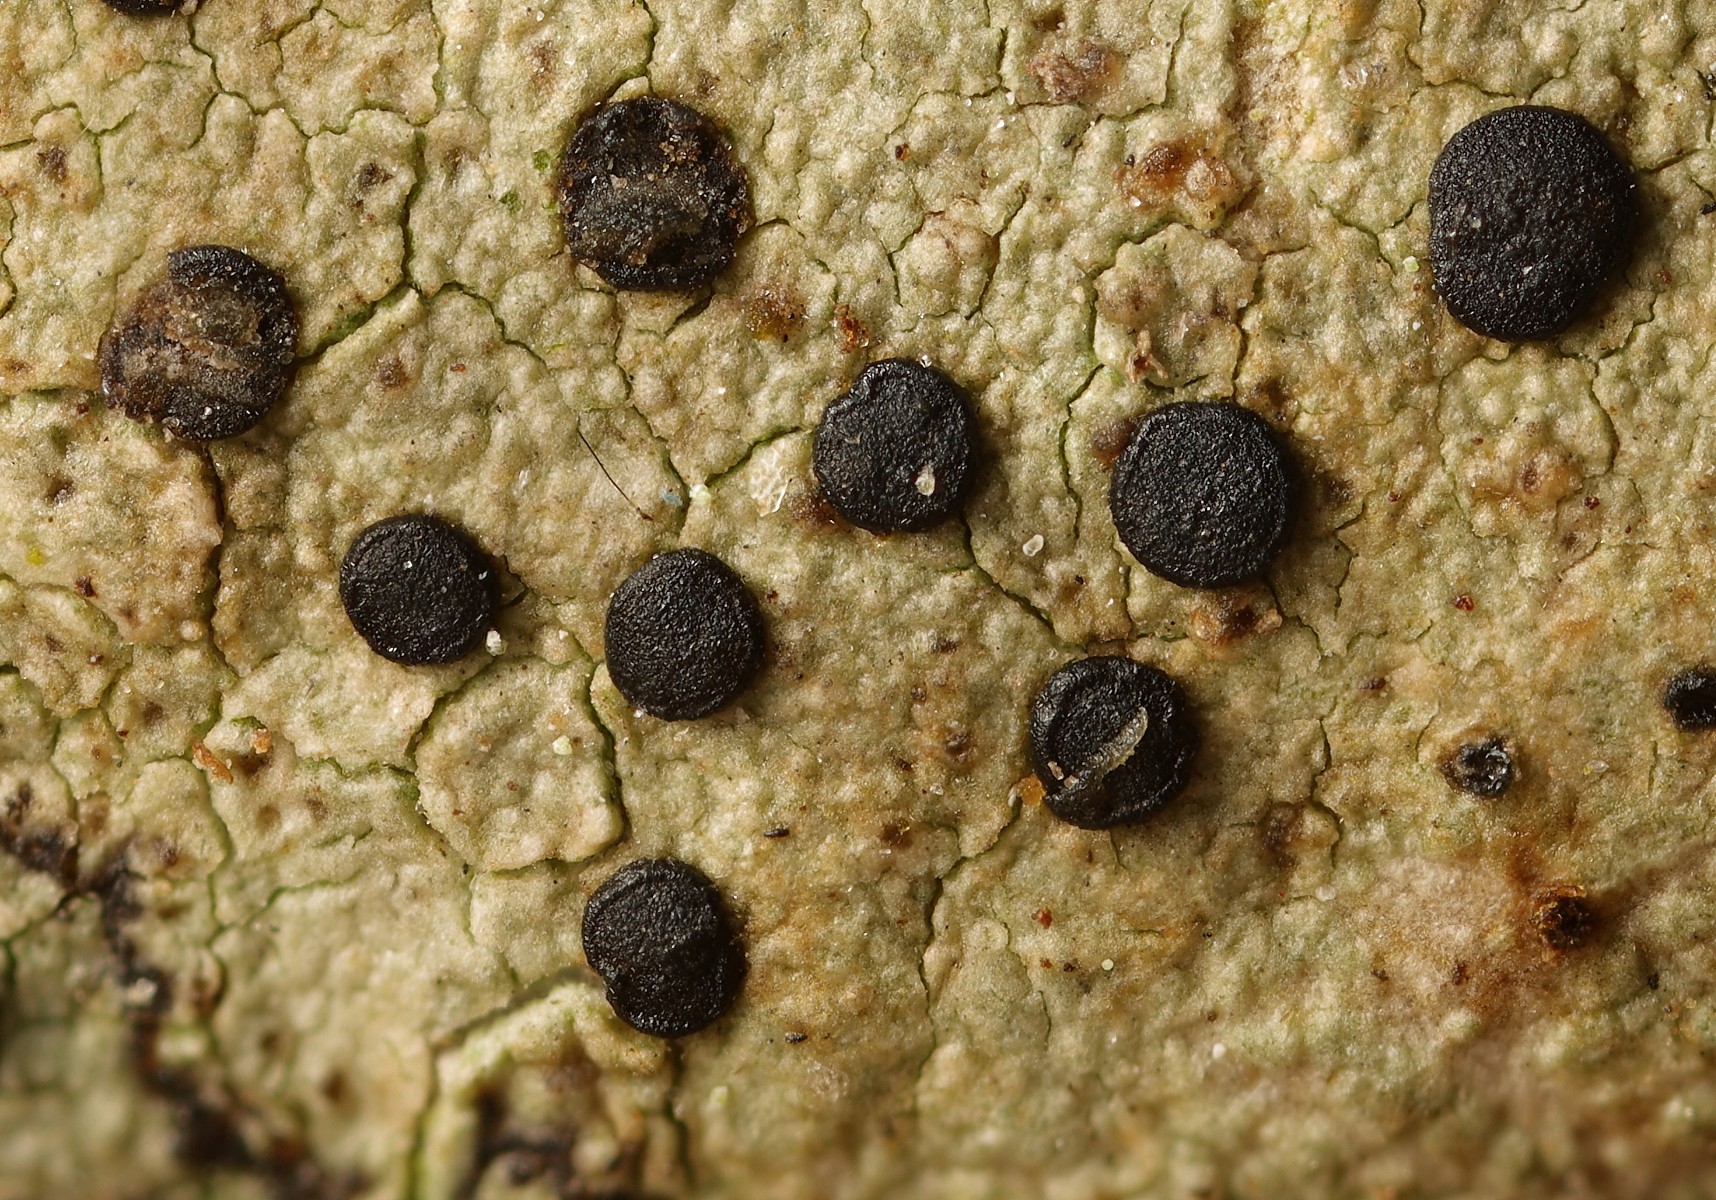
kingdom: Fungi
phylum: Ascomycota
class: Lecanoromycetes
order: Lecanorales
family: Lecanoraceae
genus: Lecidella
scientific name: Lecidella elaeochroma
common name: grågrøn skivelav
